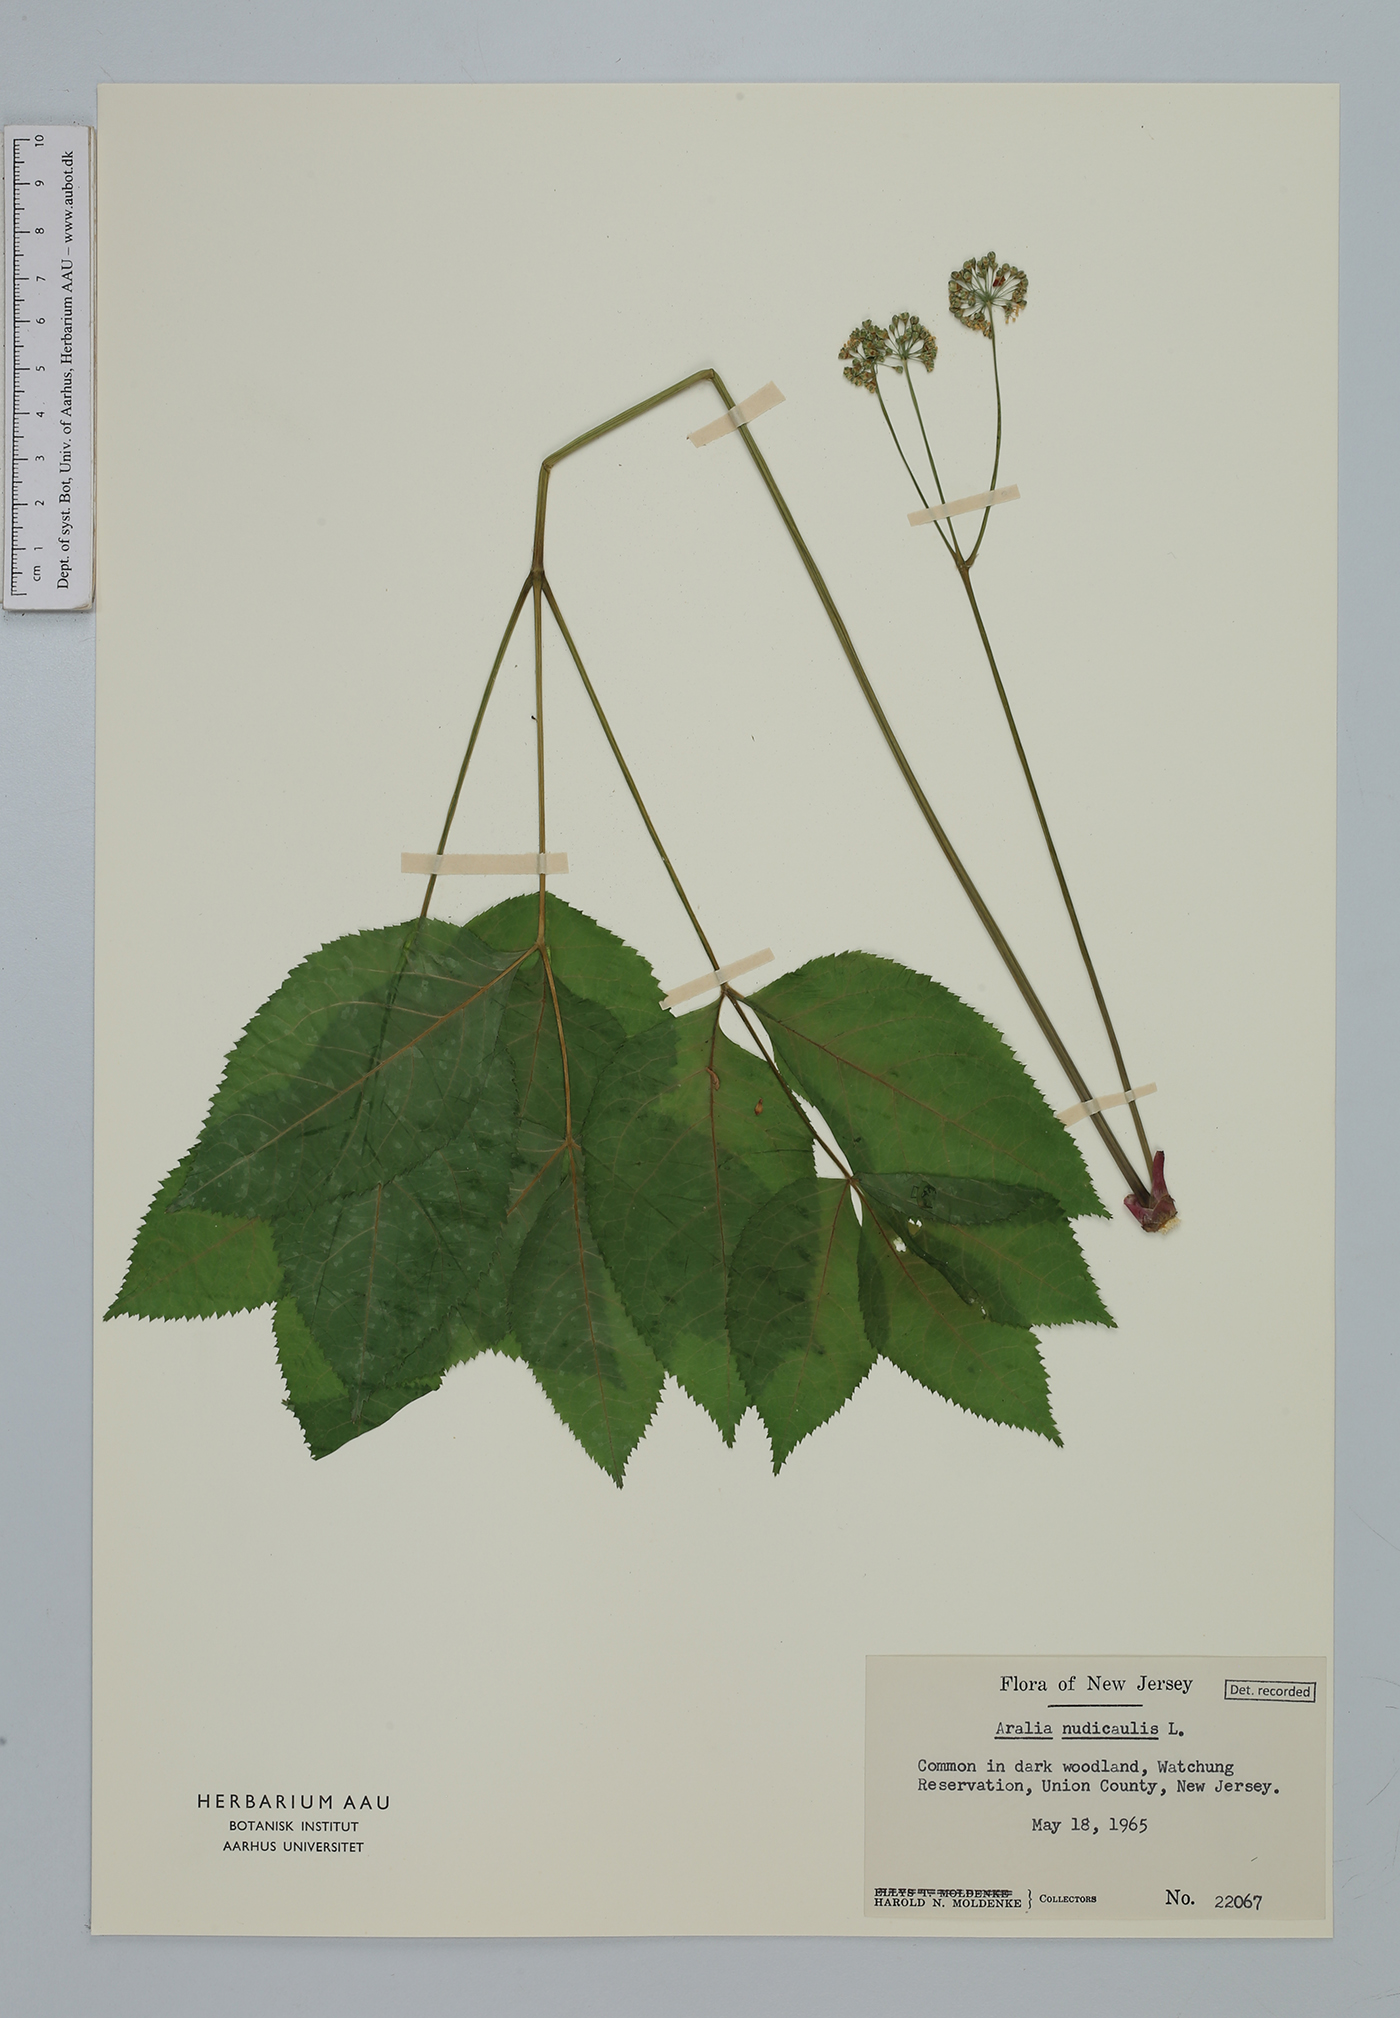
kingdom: Plantae
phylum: Tracheophyta
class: Magnoliopsida
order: Apiales
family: Araliaceae
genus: Aralia
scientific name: Aralia nudicaulis
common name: Wild sarsaparilla
